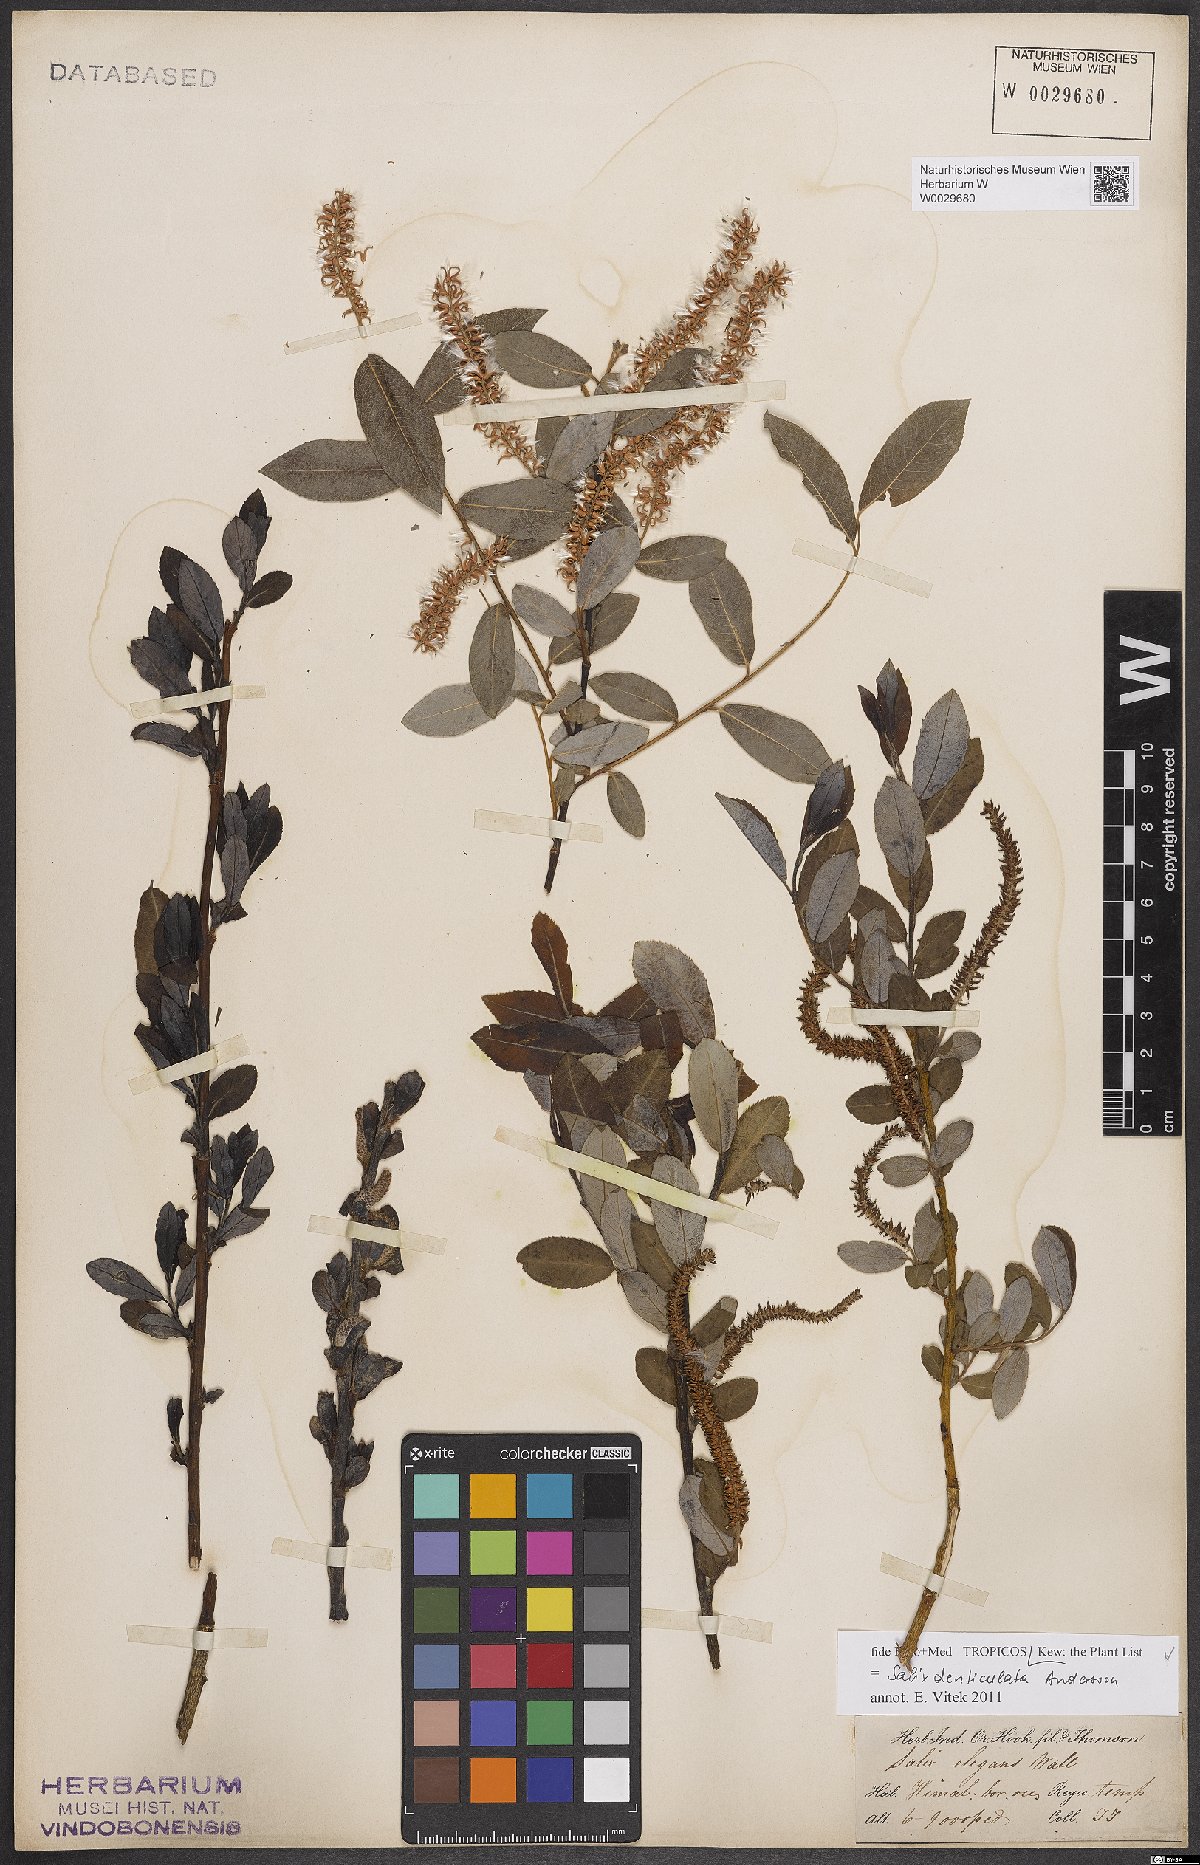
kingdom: Plantae
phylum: Tracheophyta
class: Magnoliopsida
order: Malpighiales
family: Salicaceae
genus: Salix
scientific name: Salix denticulata
